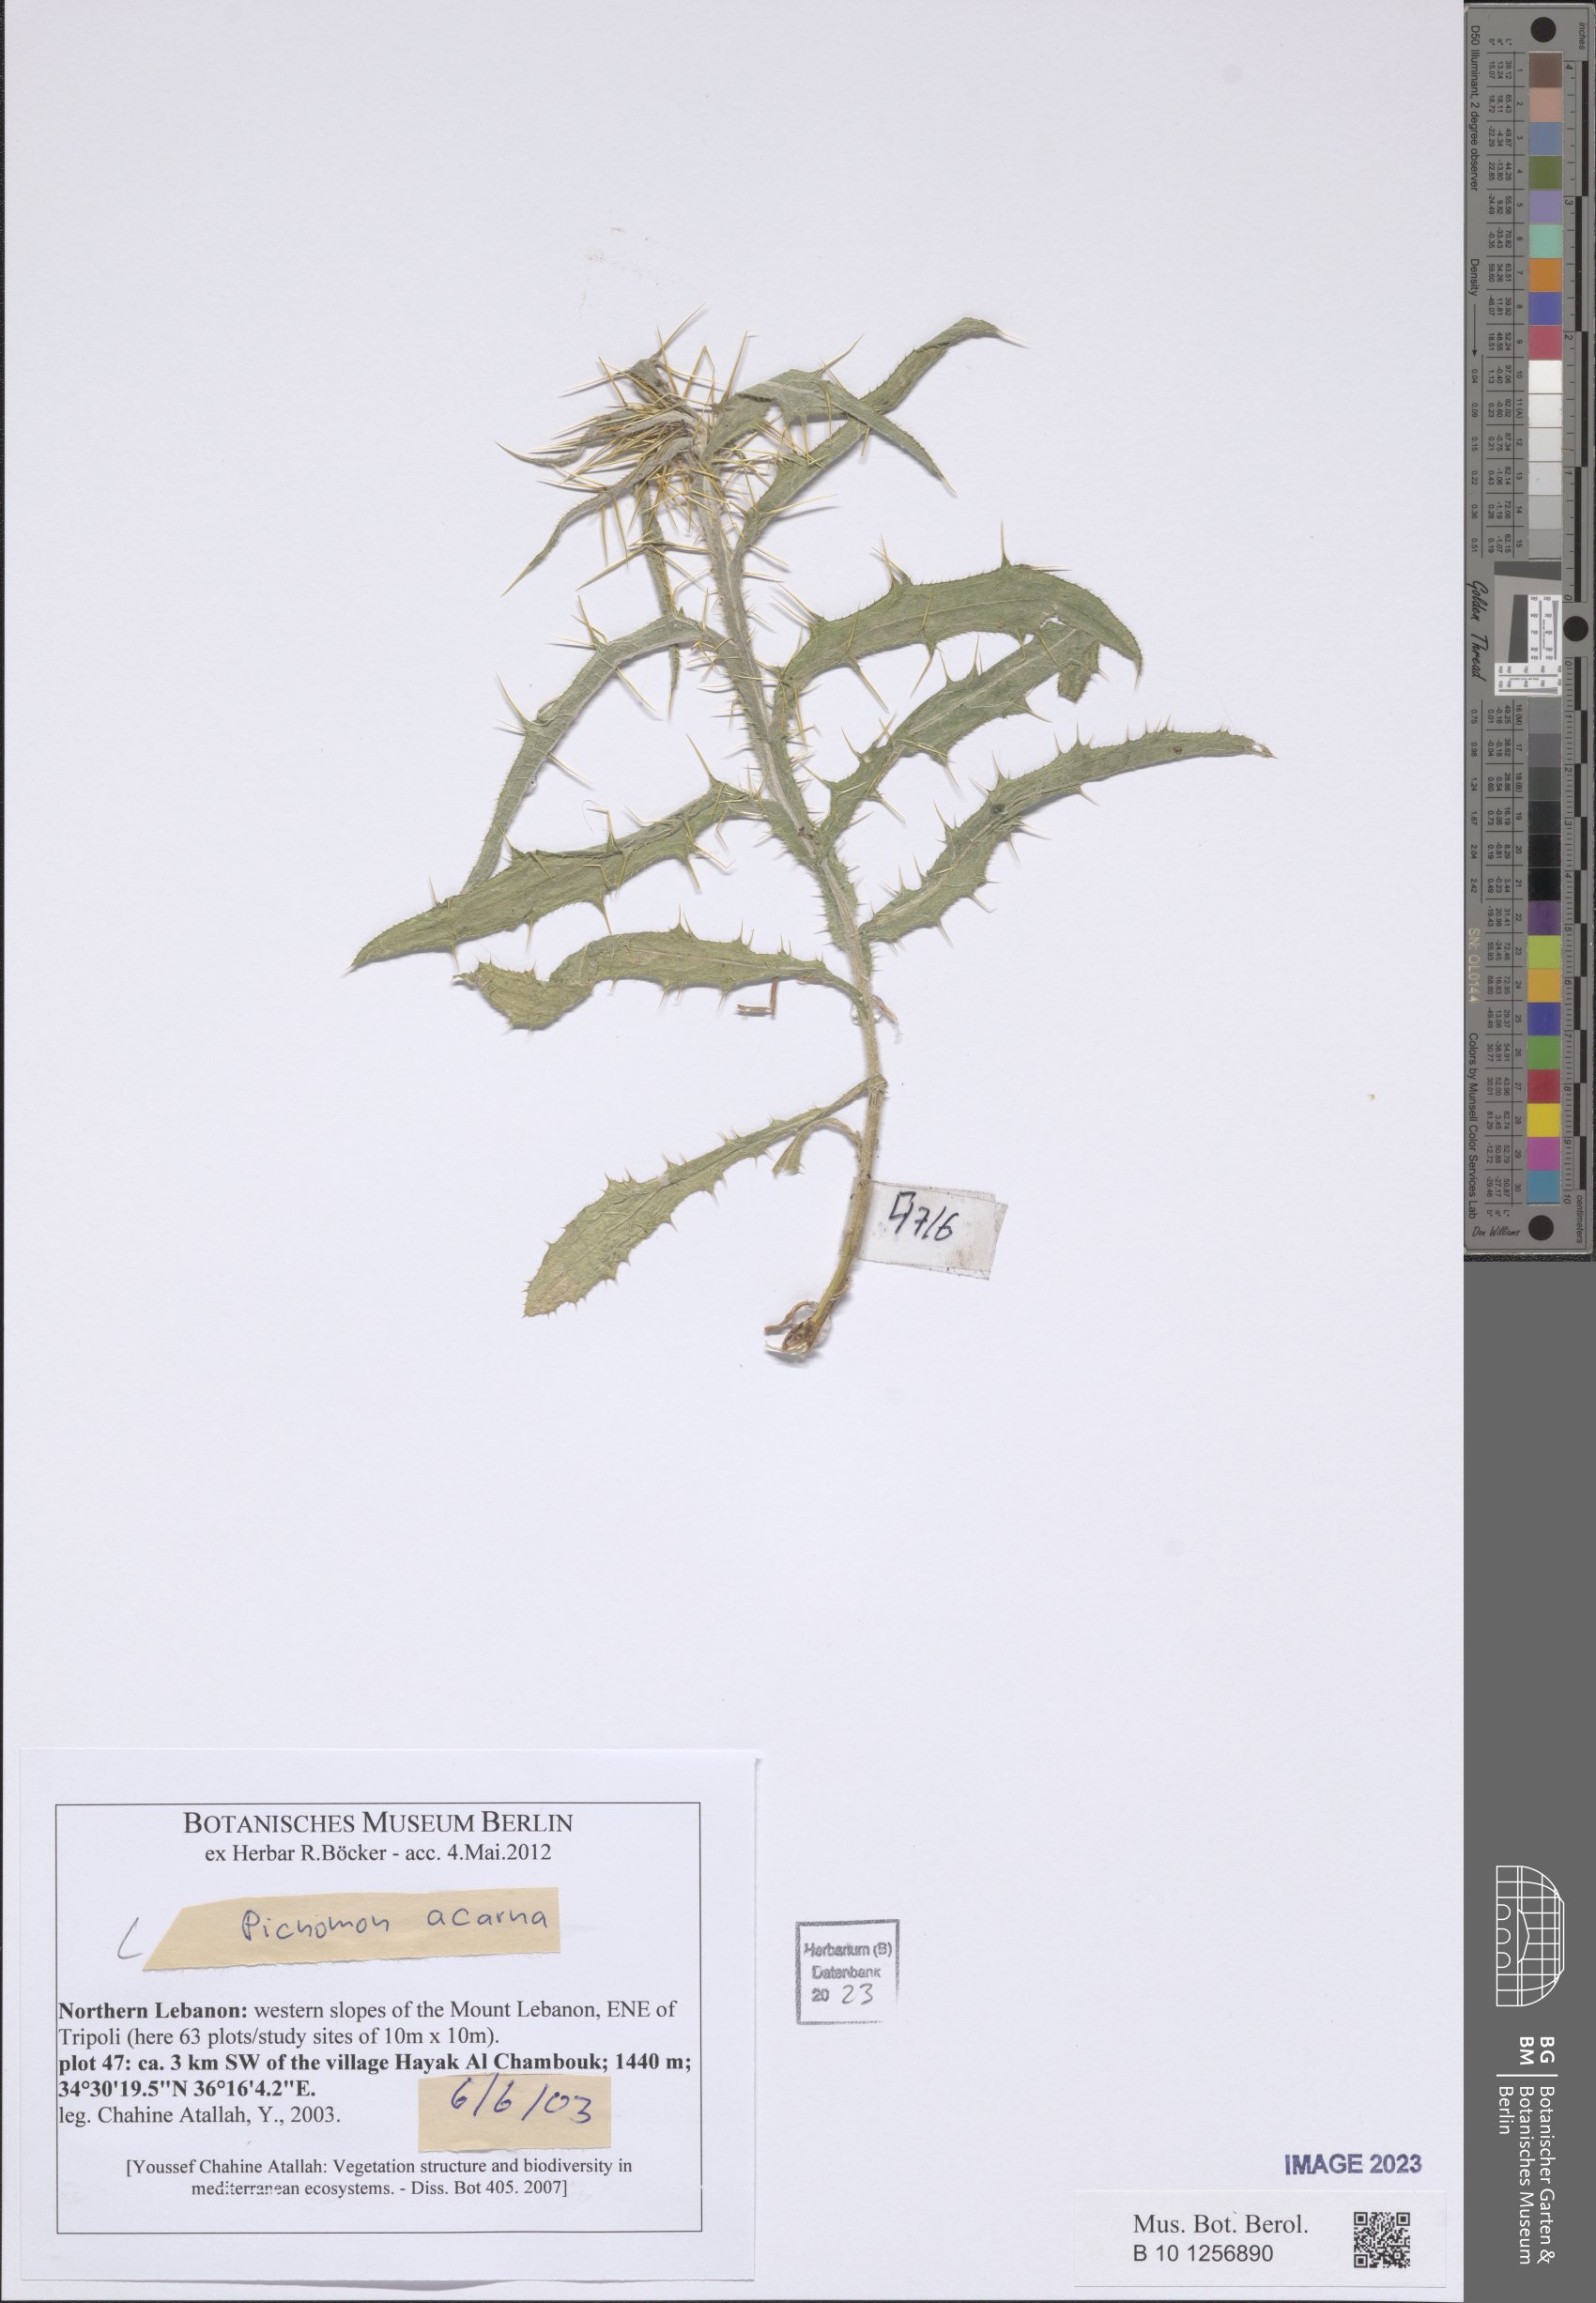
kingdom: Plantae
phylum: Tracheophyta
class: Magnoliopsida
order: Asterales
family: Asteraceae
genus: Picnomon
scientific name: Picnomon acarna
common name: Soldier thistle
